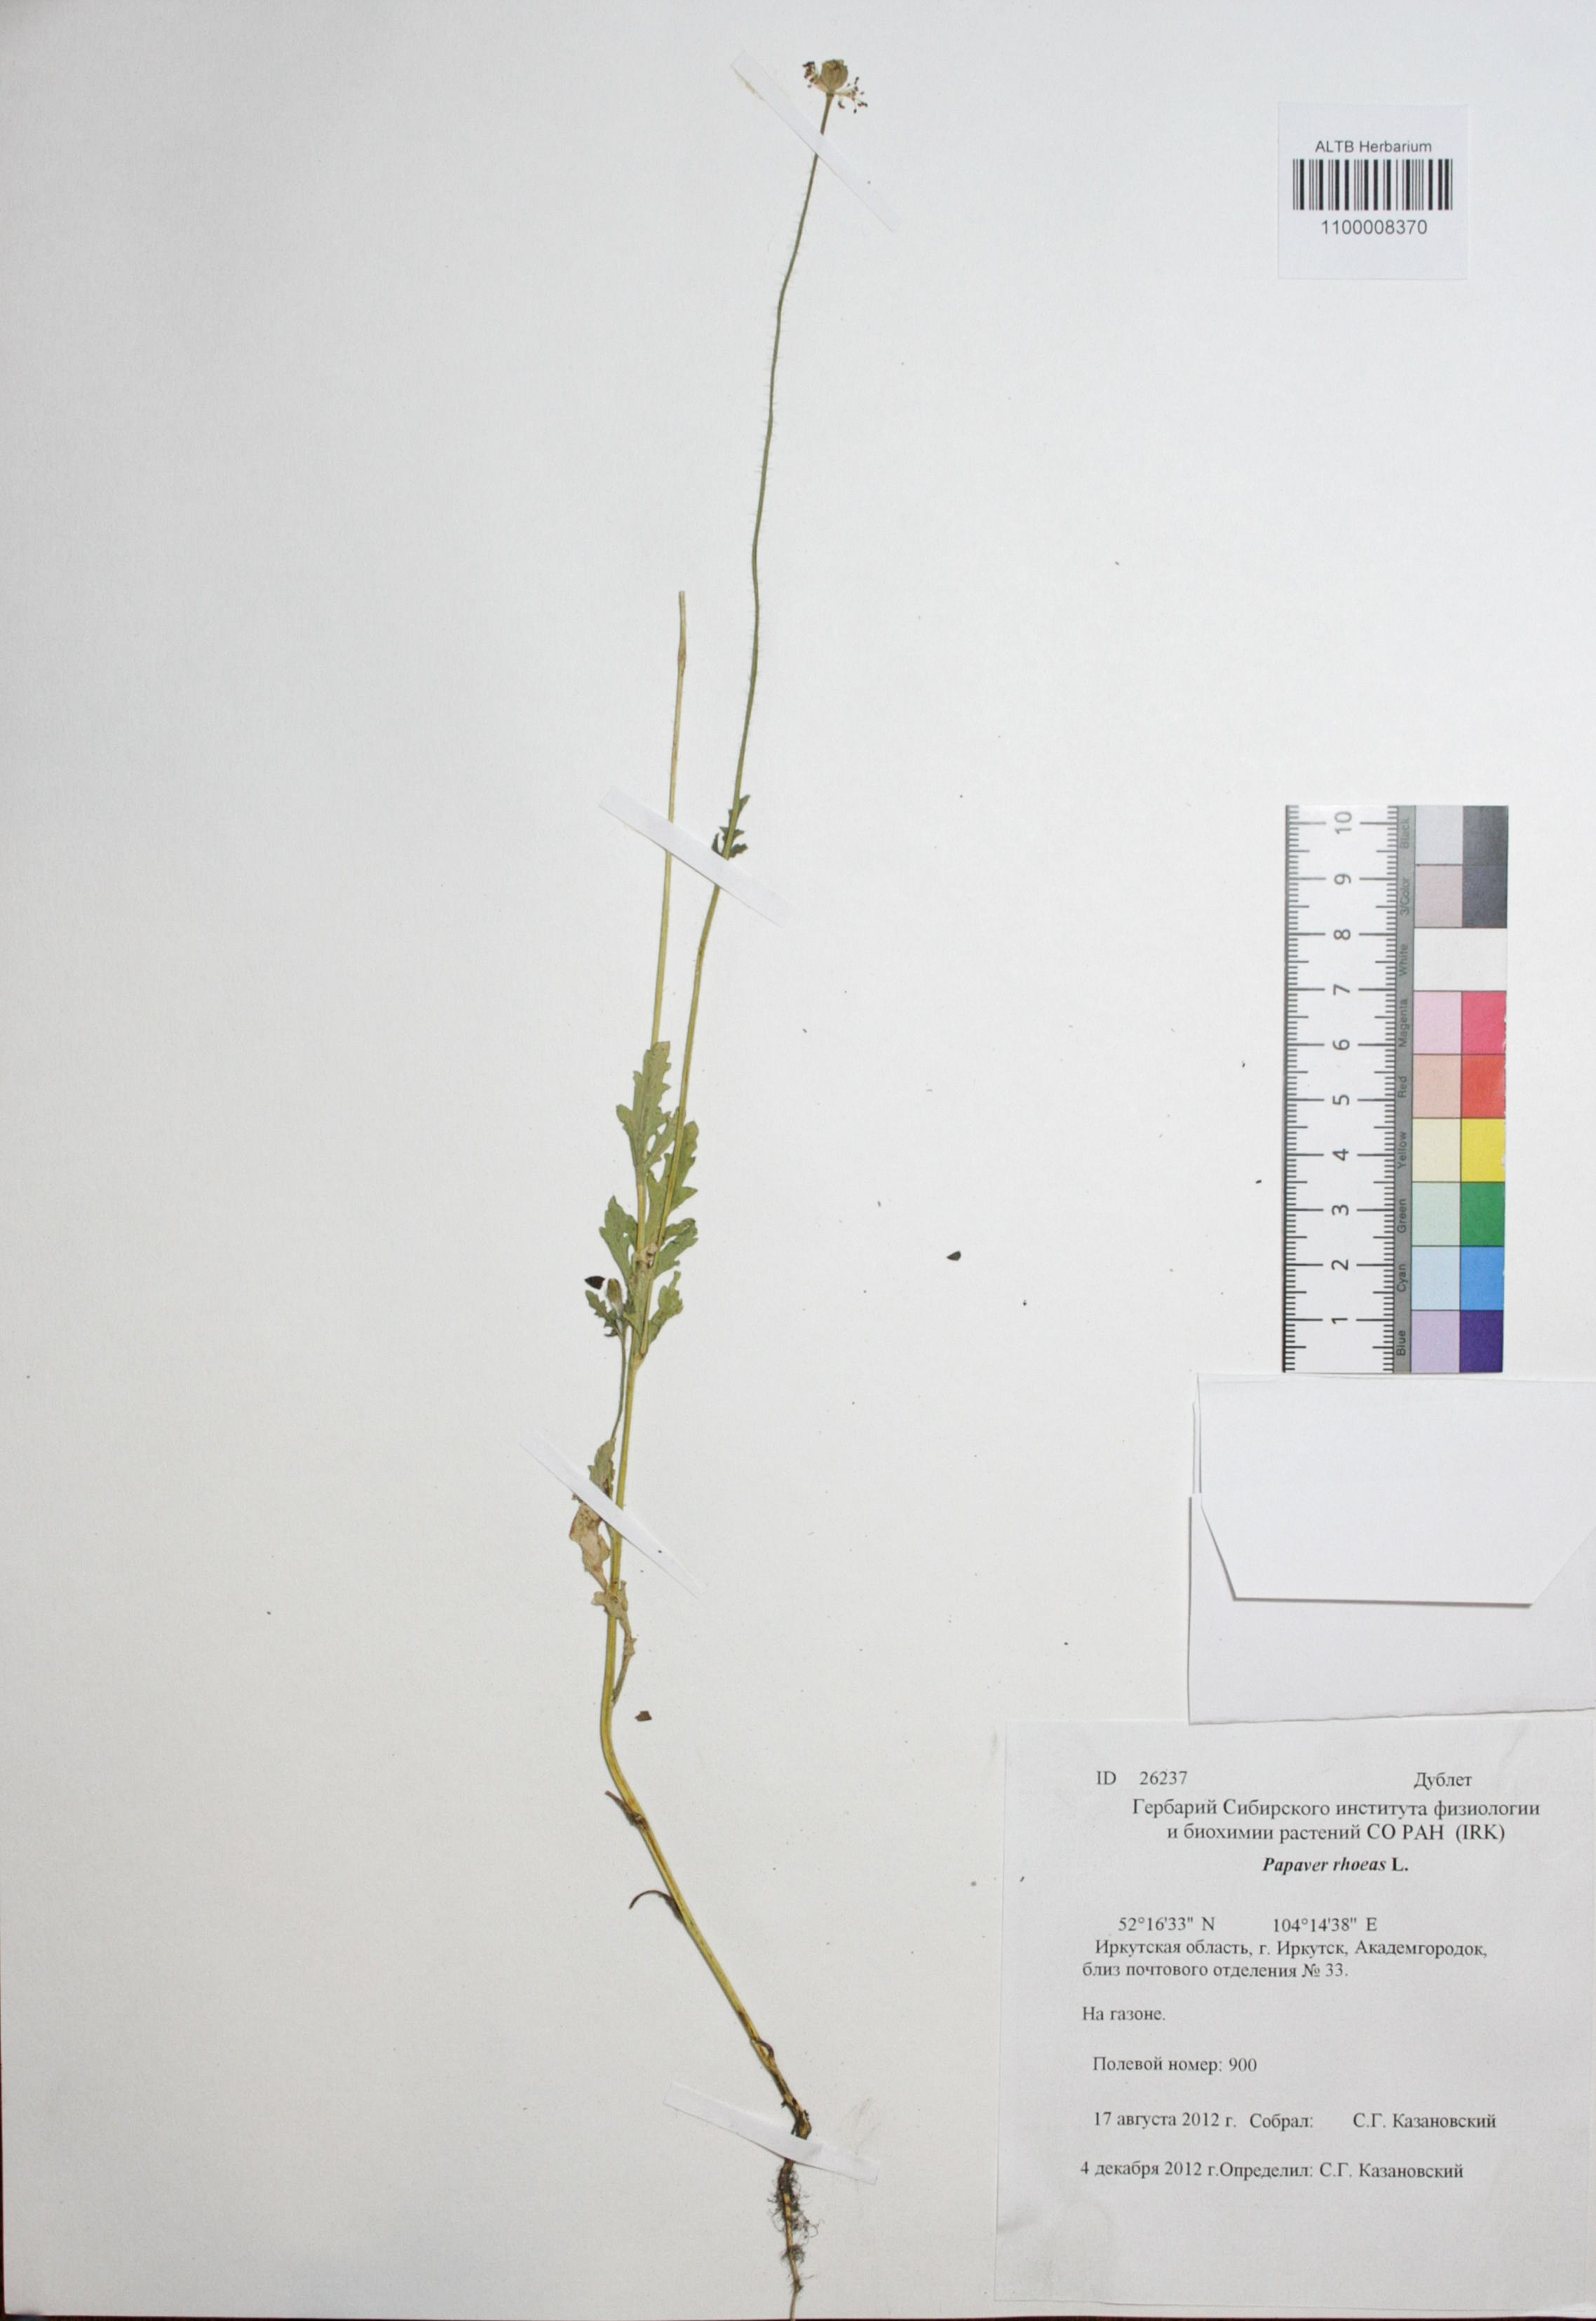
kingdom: Plantae
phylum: Tracheophyta
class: Magnoliopsida
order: Ranunculales
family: Papaveraceae
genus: Papaver
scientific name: Papaver rhoeas
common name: Corn poppy
